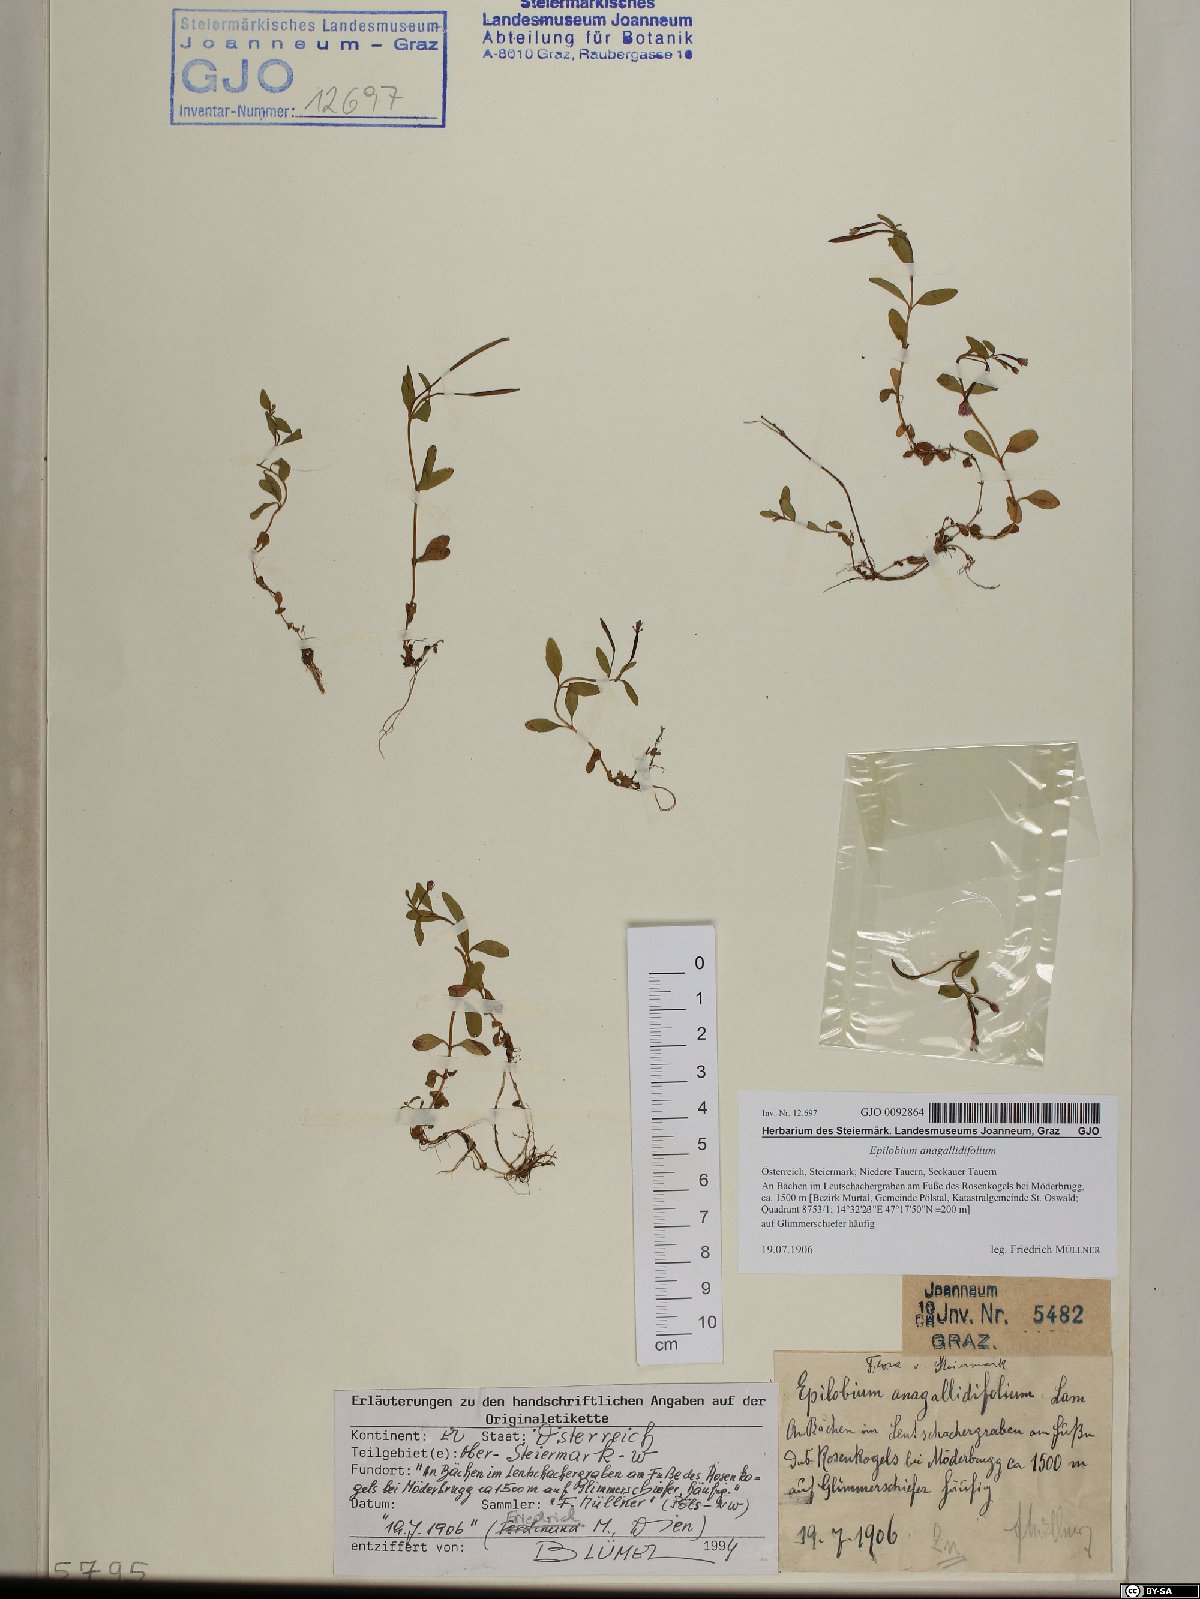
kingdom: Plantae
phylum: Tracheophyta
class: Magnoliopsida
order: Myrtales
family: Onagraceae
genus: Epilobium
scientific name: Epilobium anagallidifolium
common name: Alpine willowherb
